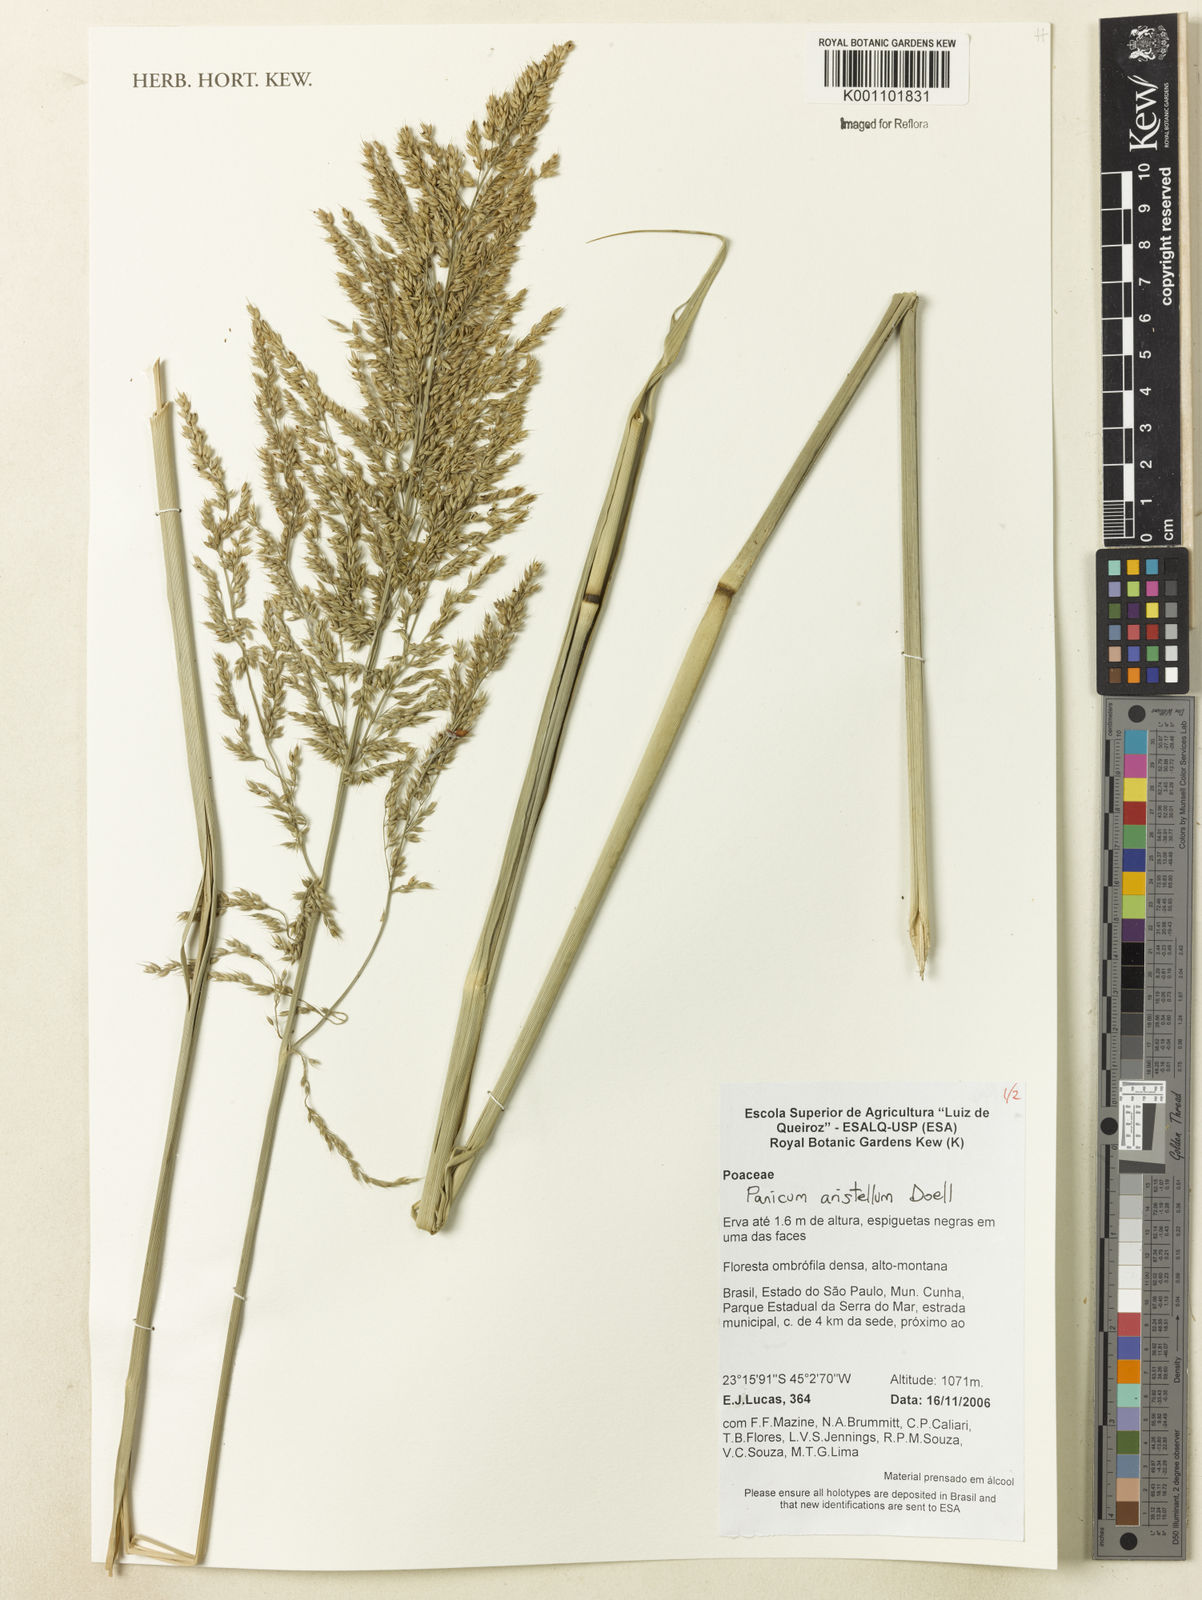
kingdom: Plantae
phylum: Tracheophyta
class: Liliopsida
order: Poales
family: Poaceae
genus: Panicum
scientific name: Panicum
